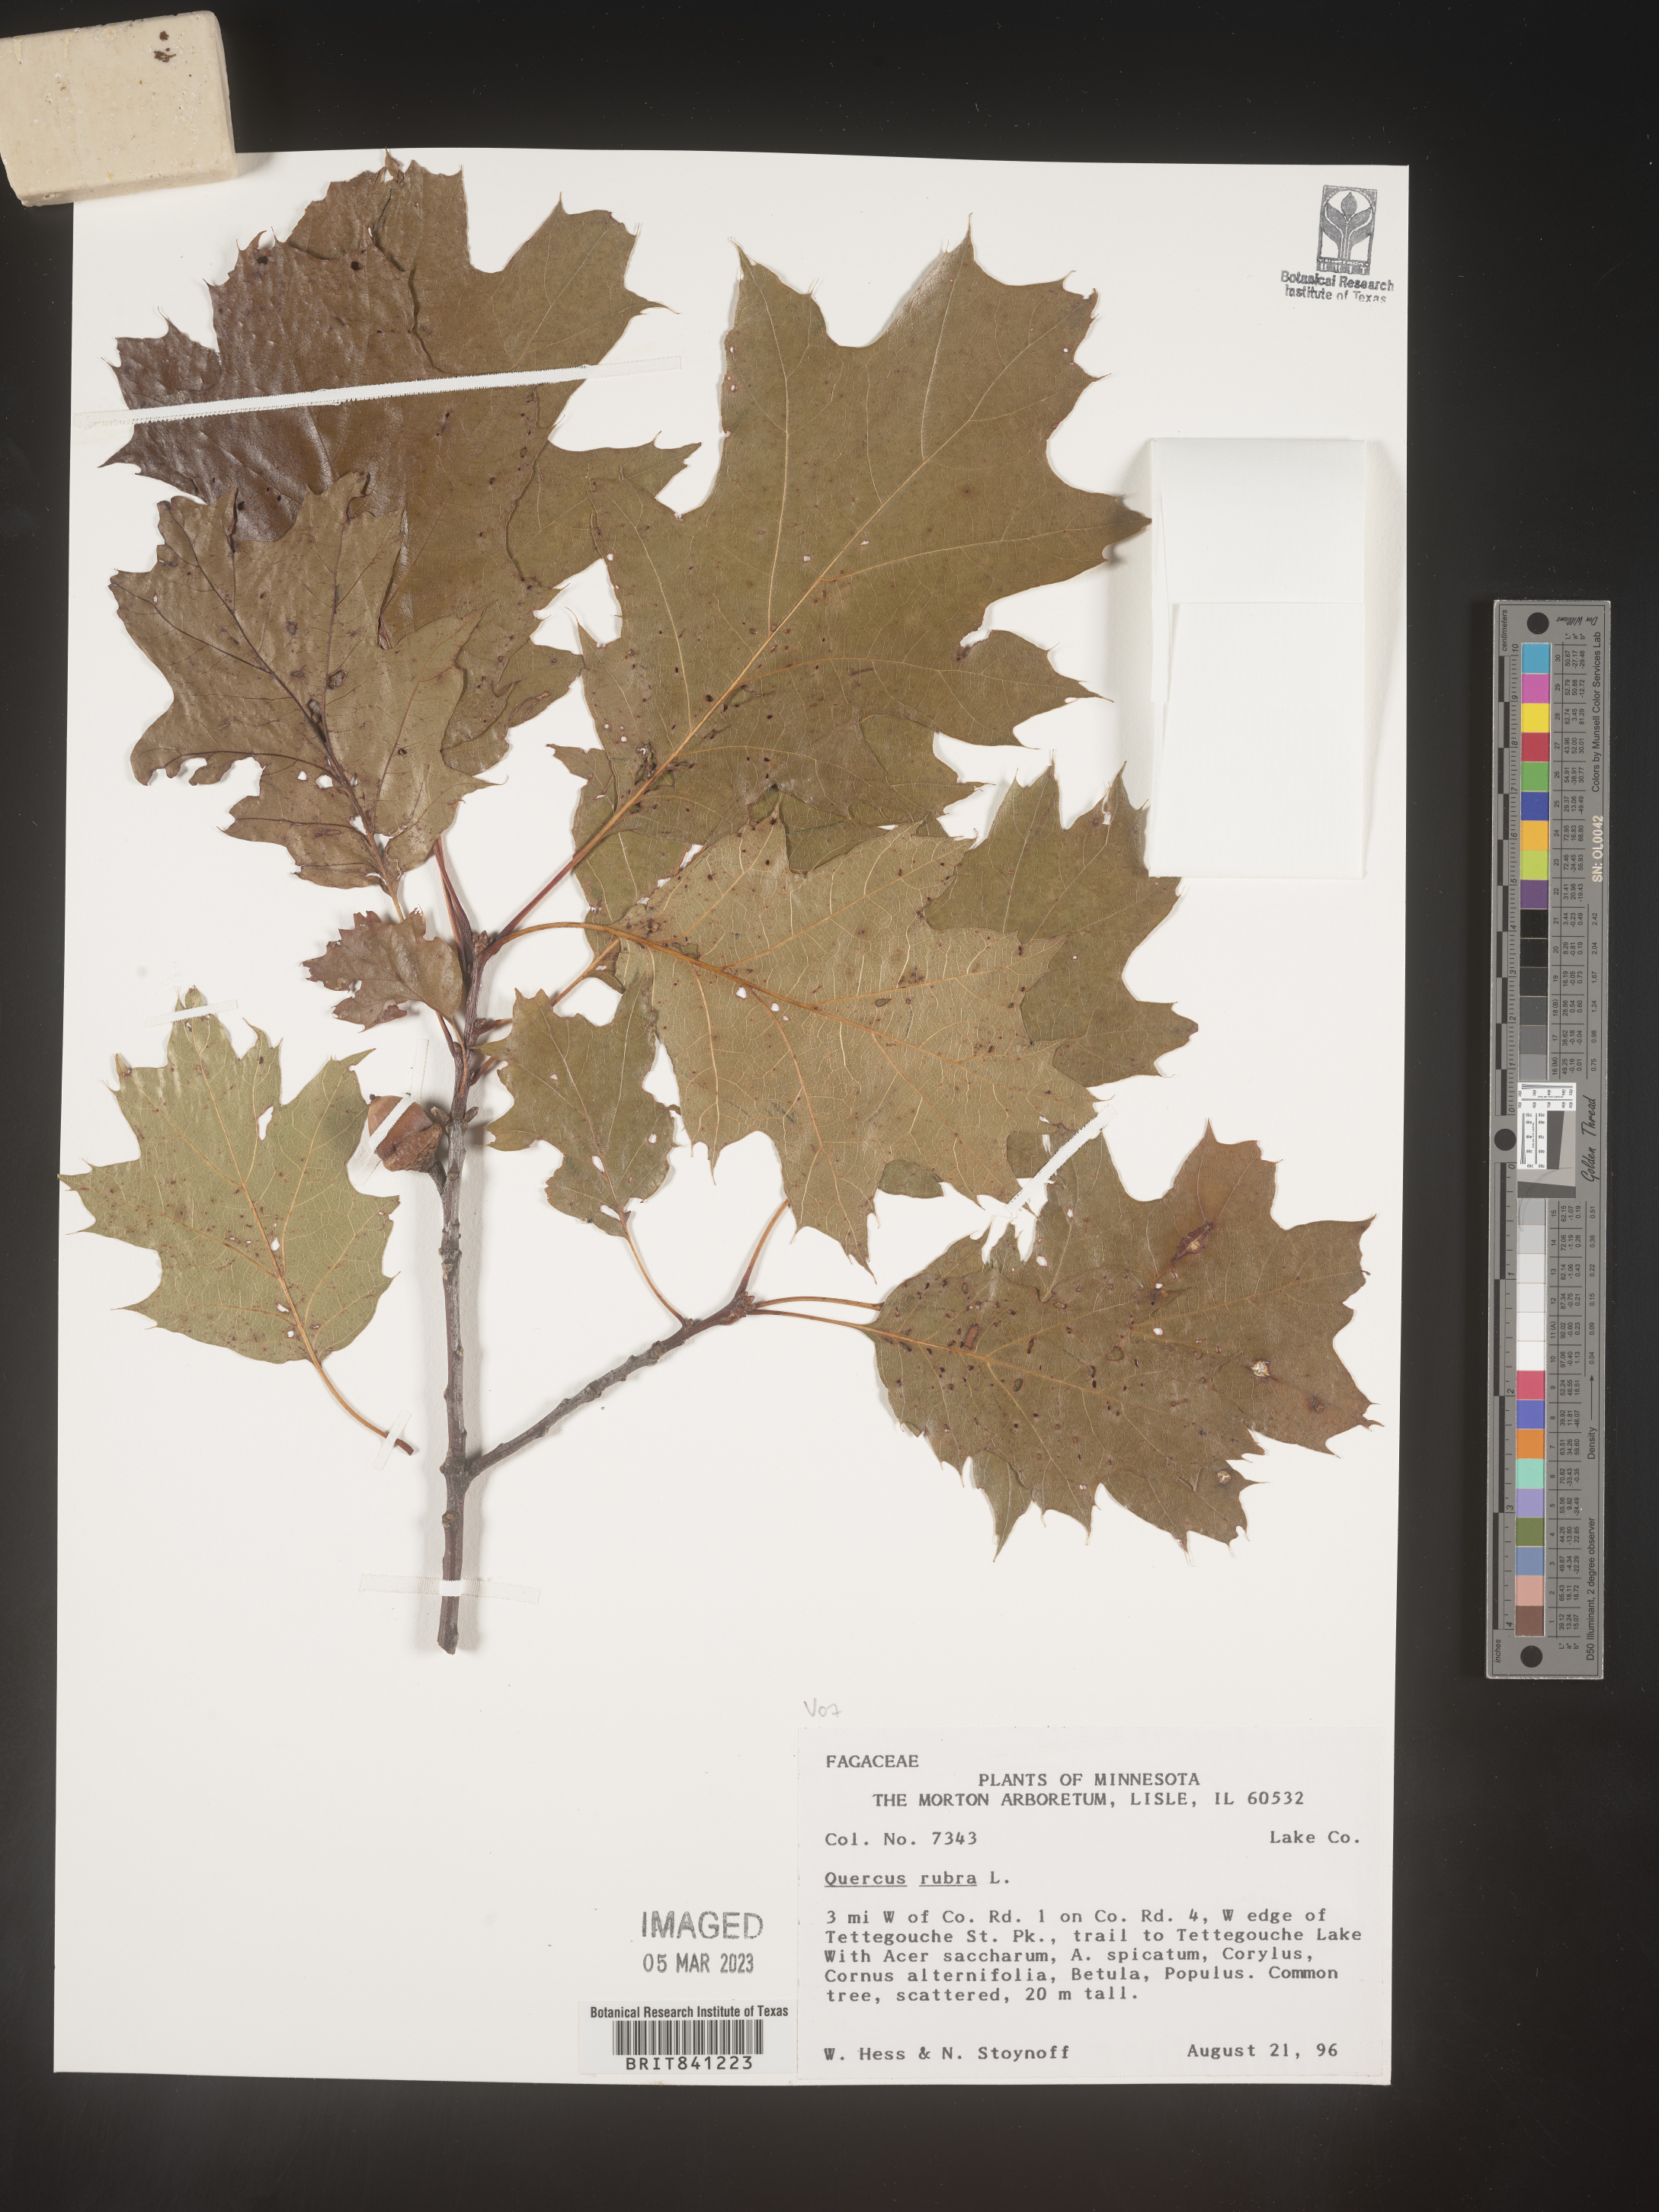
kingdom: Plantae
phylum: Tracheophyta
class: Magnoliopsida
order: Fagales
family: Fagaceae
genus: Quercus
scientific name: Quercus rubra
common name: Red oak
